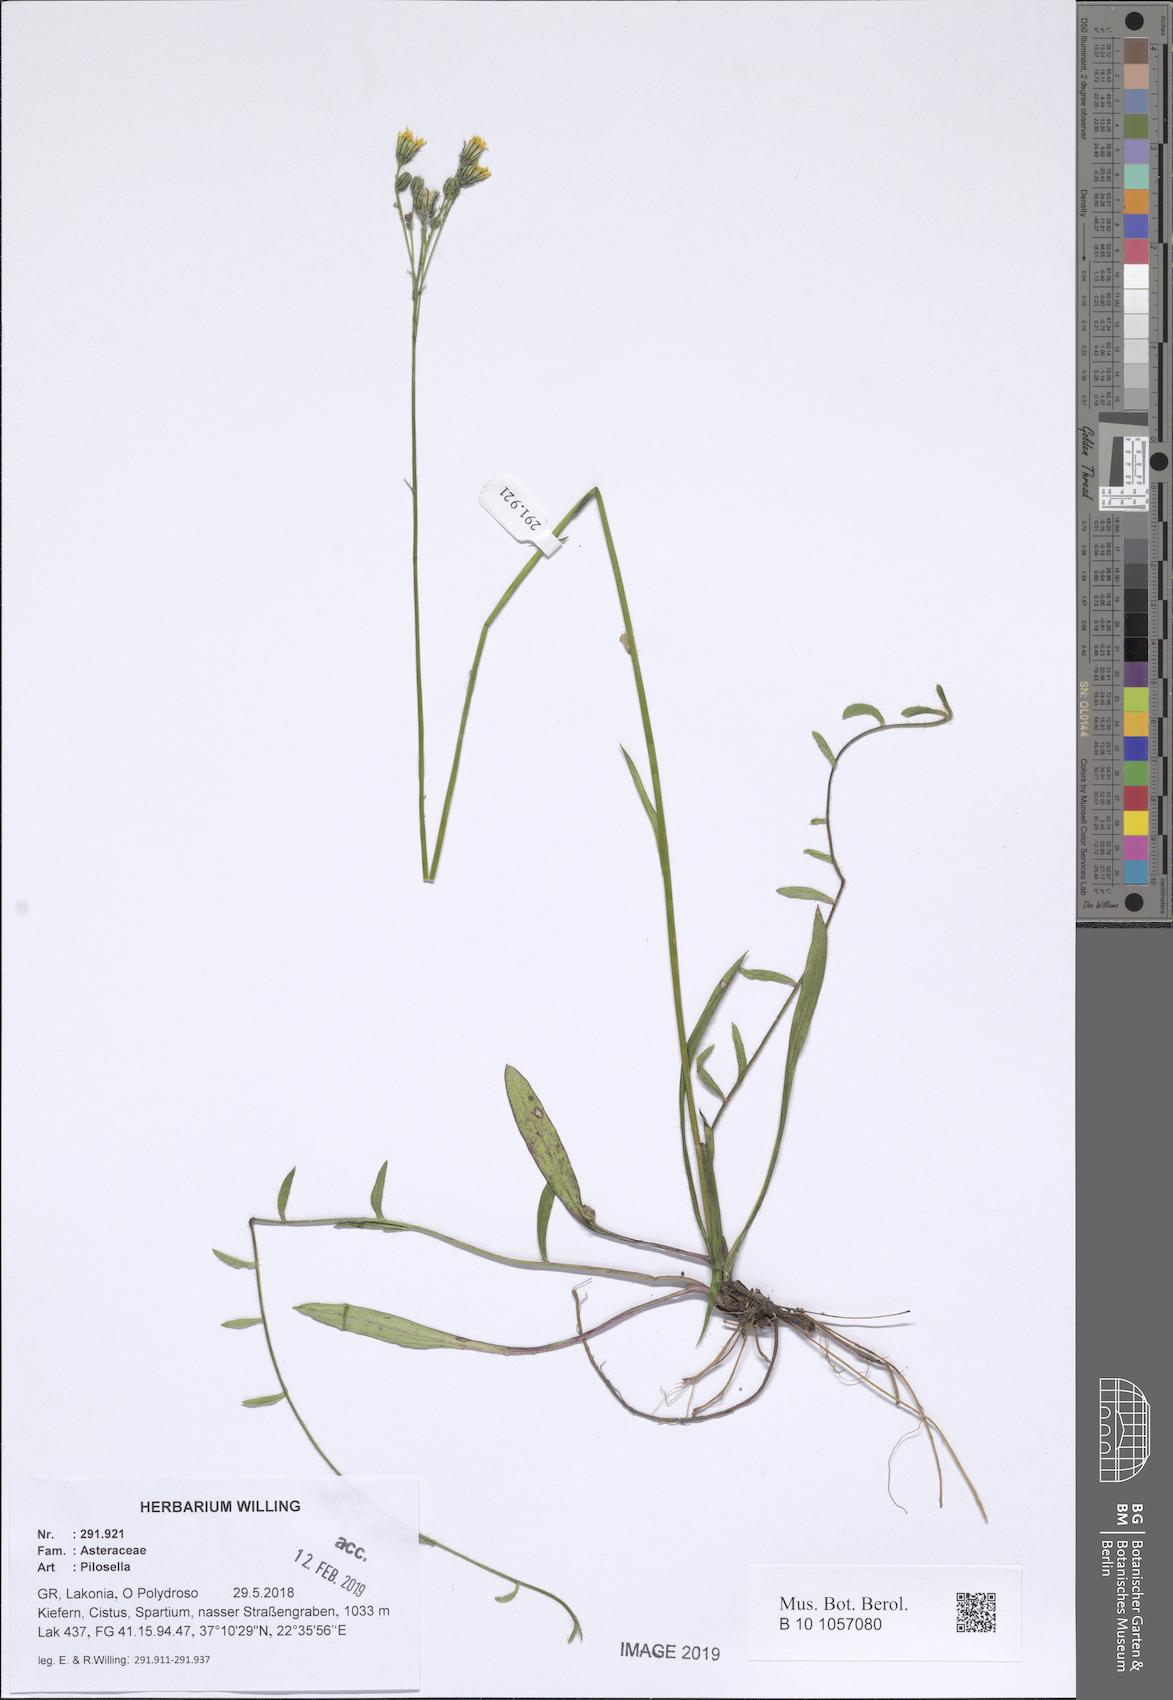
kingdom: Plantae
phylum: Tracheophyta
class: Magnoliopsida
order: Asterales
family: Asteraceae
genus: Pilosella
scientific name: Pilosella
